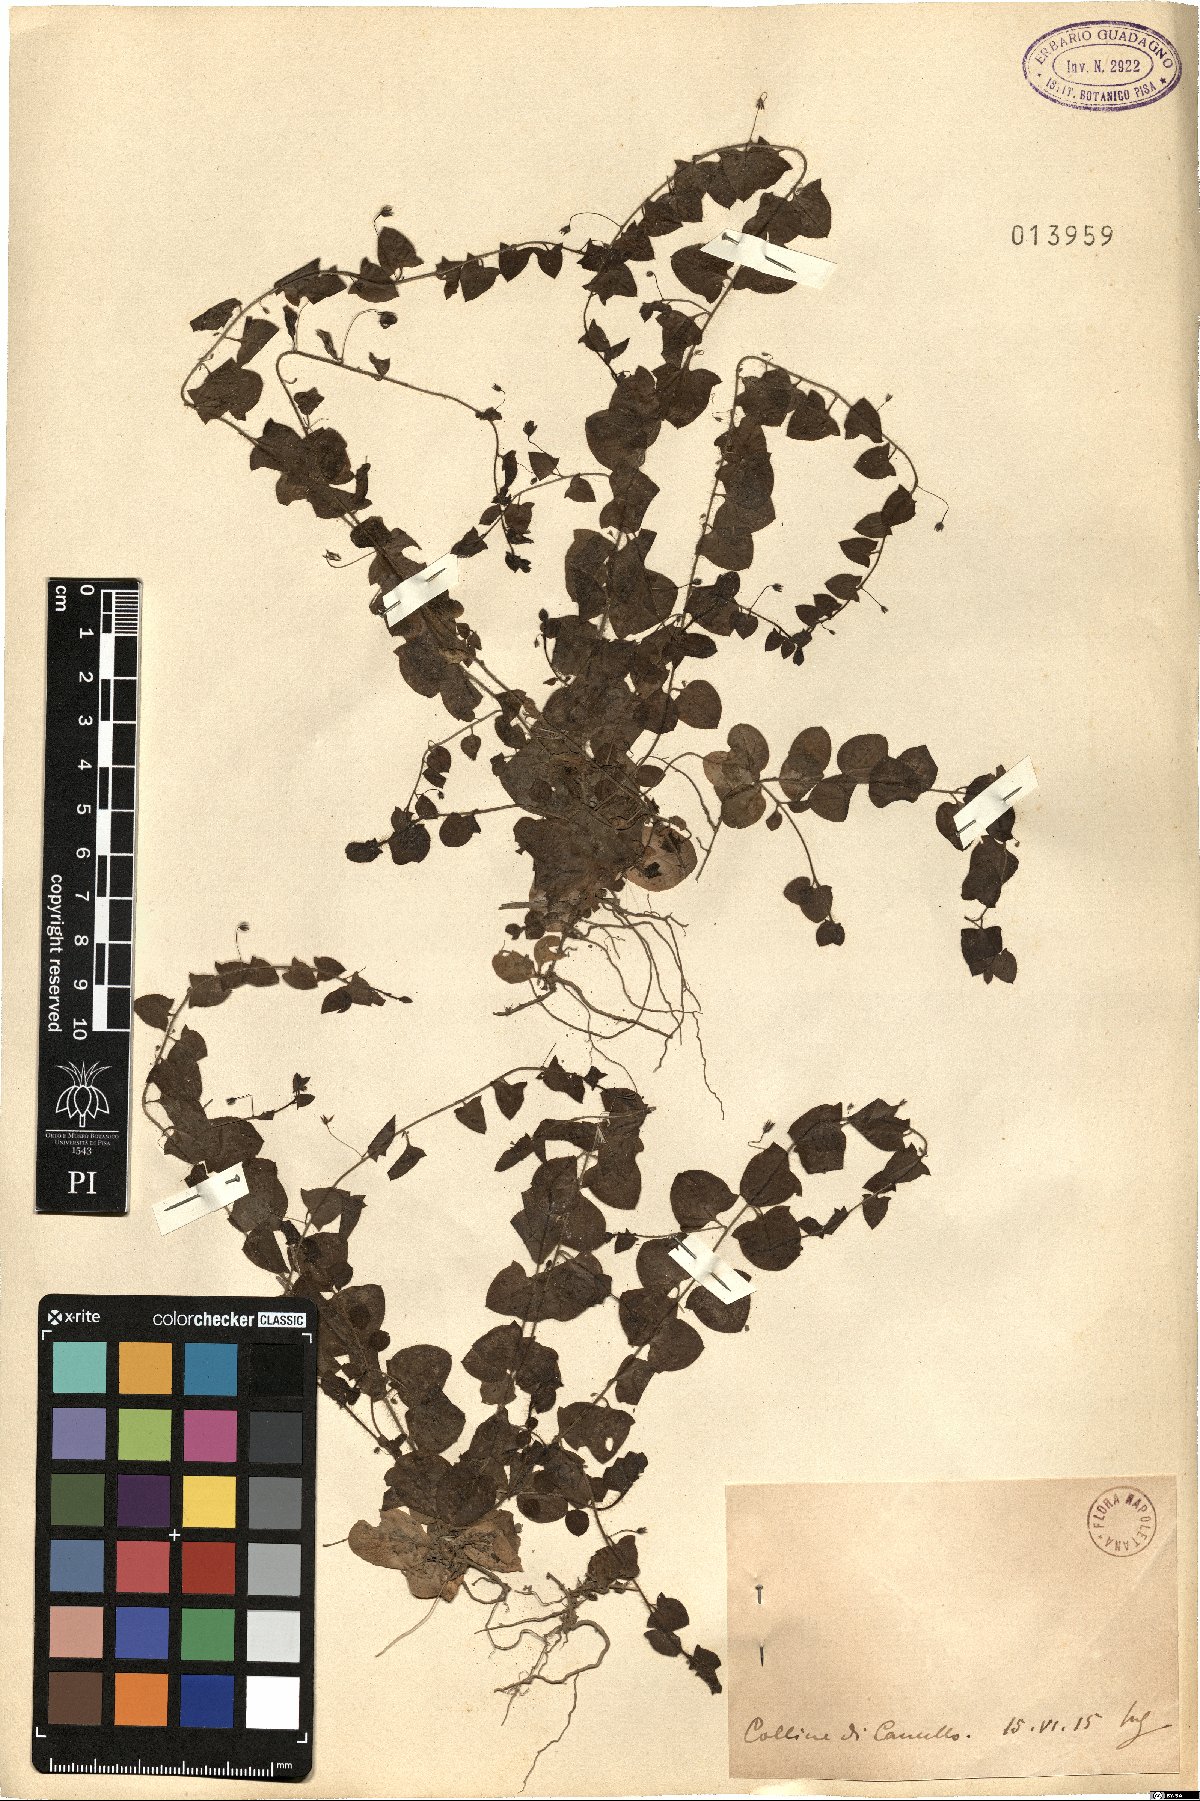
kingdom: Plantae
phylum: Tracheophyta
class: Magnoliopsida
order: Lamiales
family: Plantaginaceae
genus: Linaria
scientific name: Linaria
